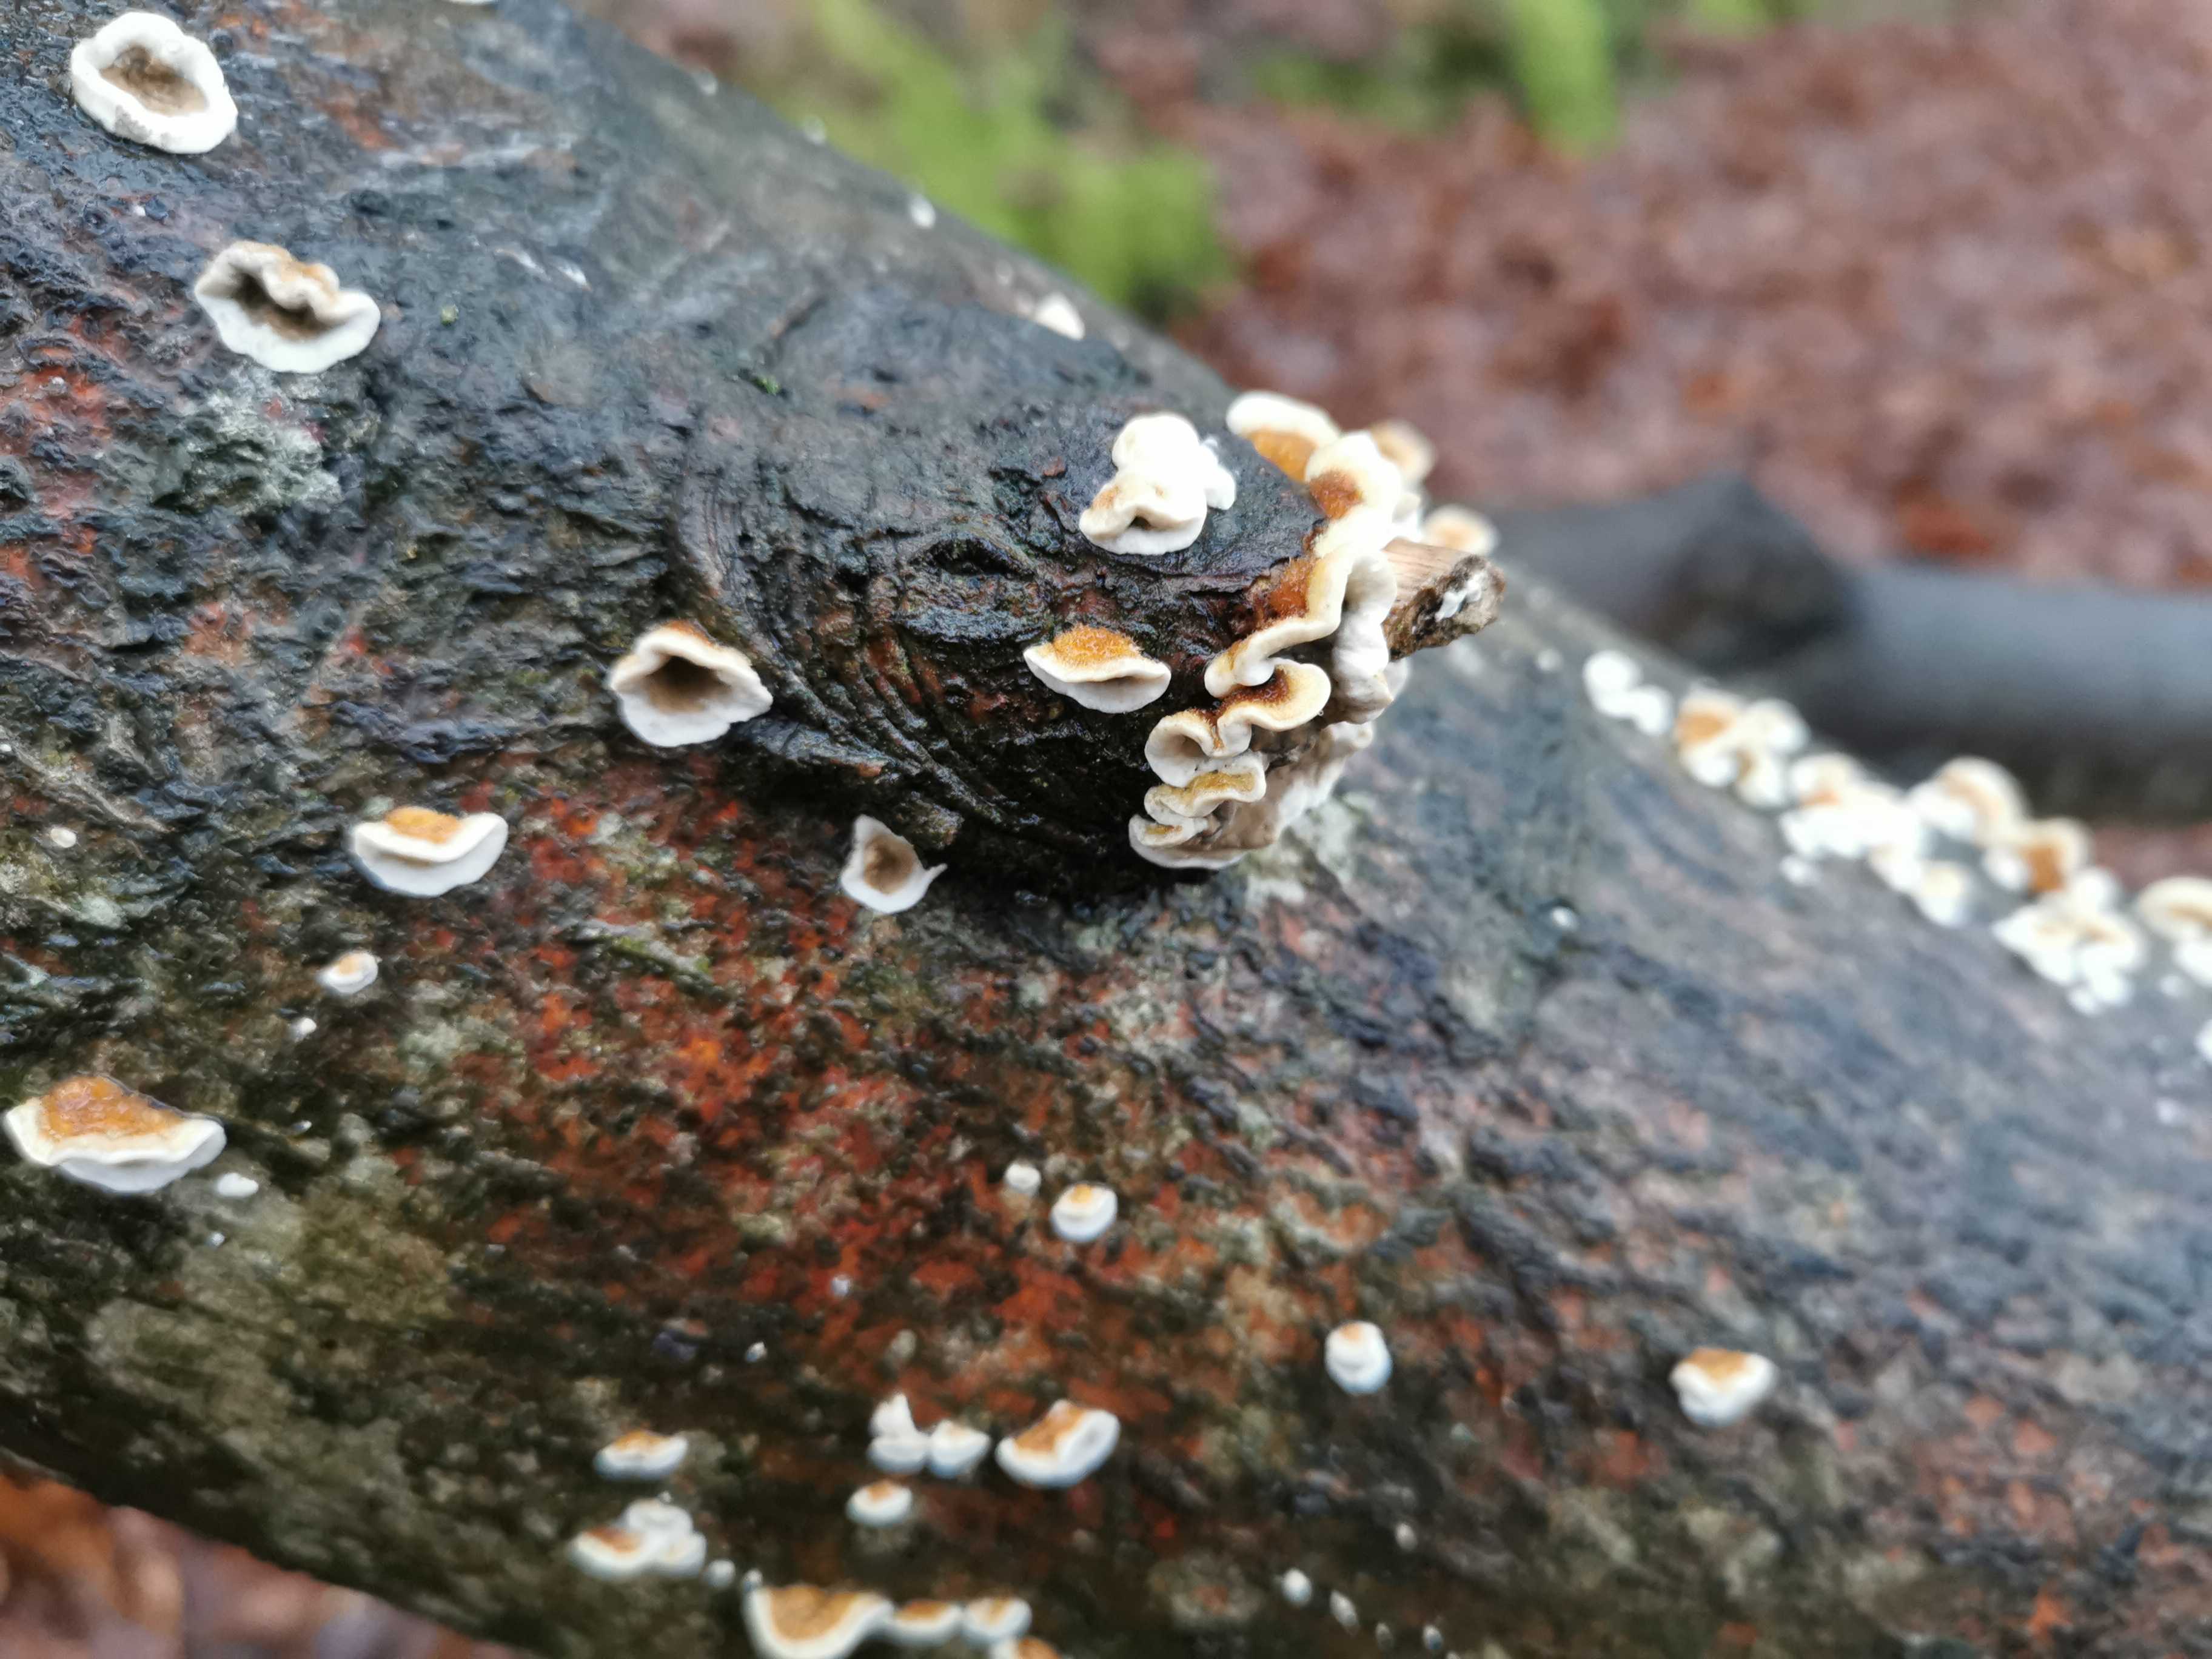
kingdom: Fungi
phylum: Basidiomycota
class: Agaricomycetes
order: Amylocorticiales
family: Amylocorticiaceae
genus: Plicaturopsis
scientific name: Plicaturopsis crispa
